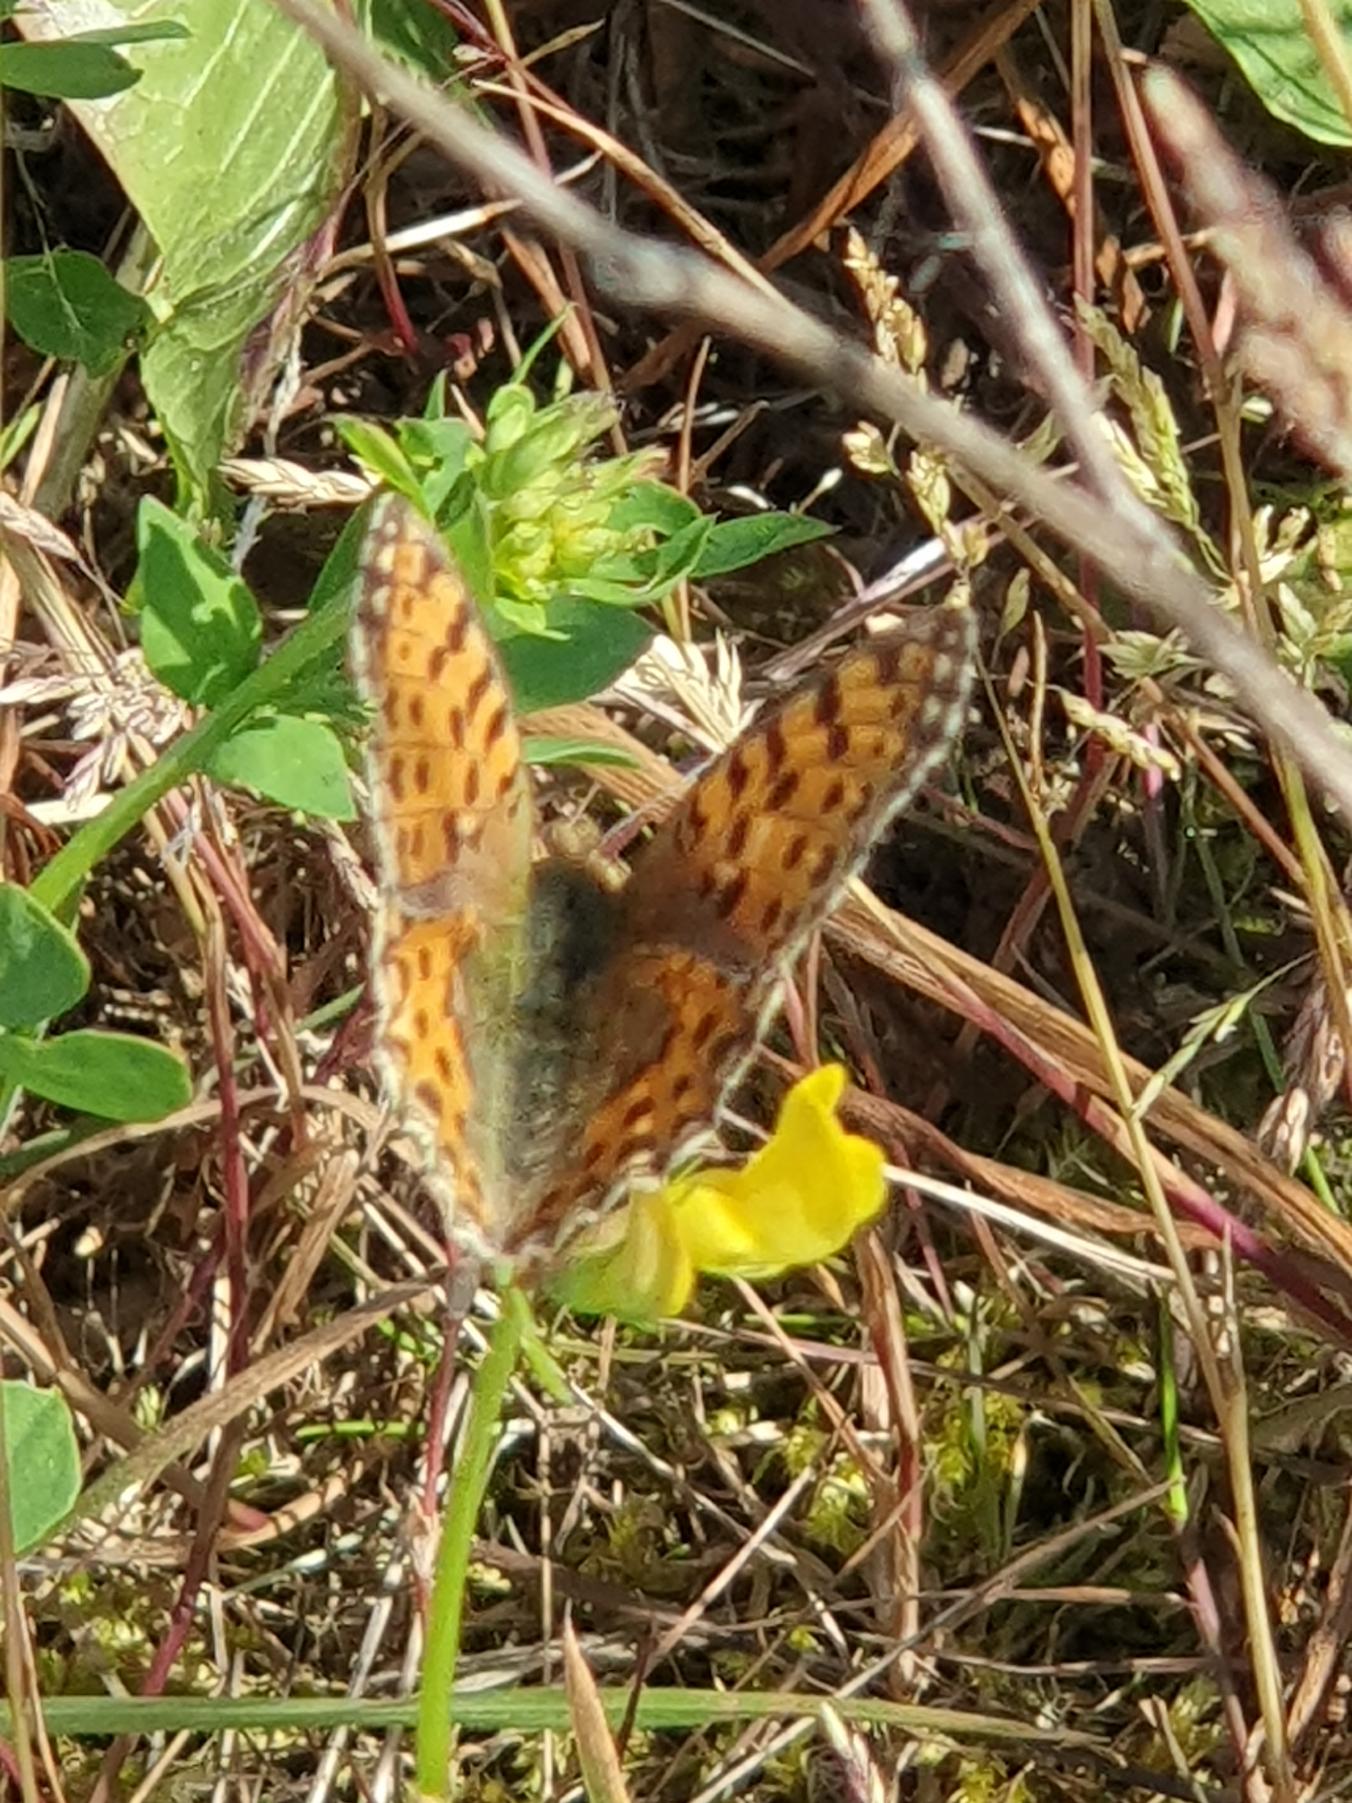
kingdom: Animalia
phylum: Arthropoda
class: Insecta
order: Lepidoptera
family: Nymphalidae
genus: Issoria
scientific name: Issoria lathonia
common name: Storplettet perlemorsommerfugl
